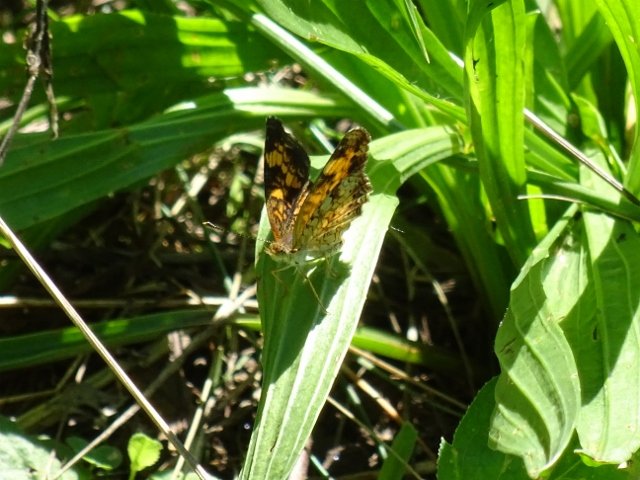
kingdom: Animalia
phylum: Arthropoda
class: Insecta
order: Lepidoptera
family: Nymphalidae
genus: Phyciodes
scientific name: Phyciodes tharos
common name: Pearl Crescent
